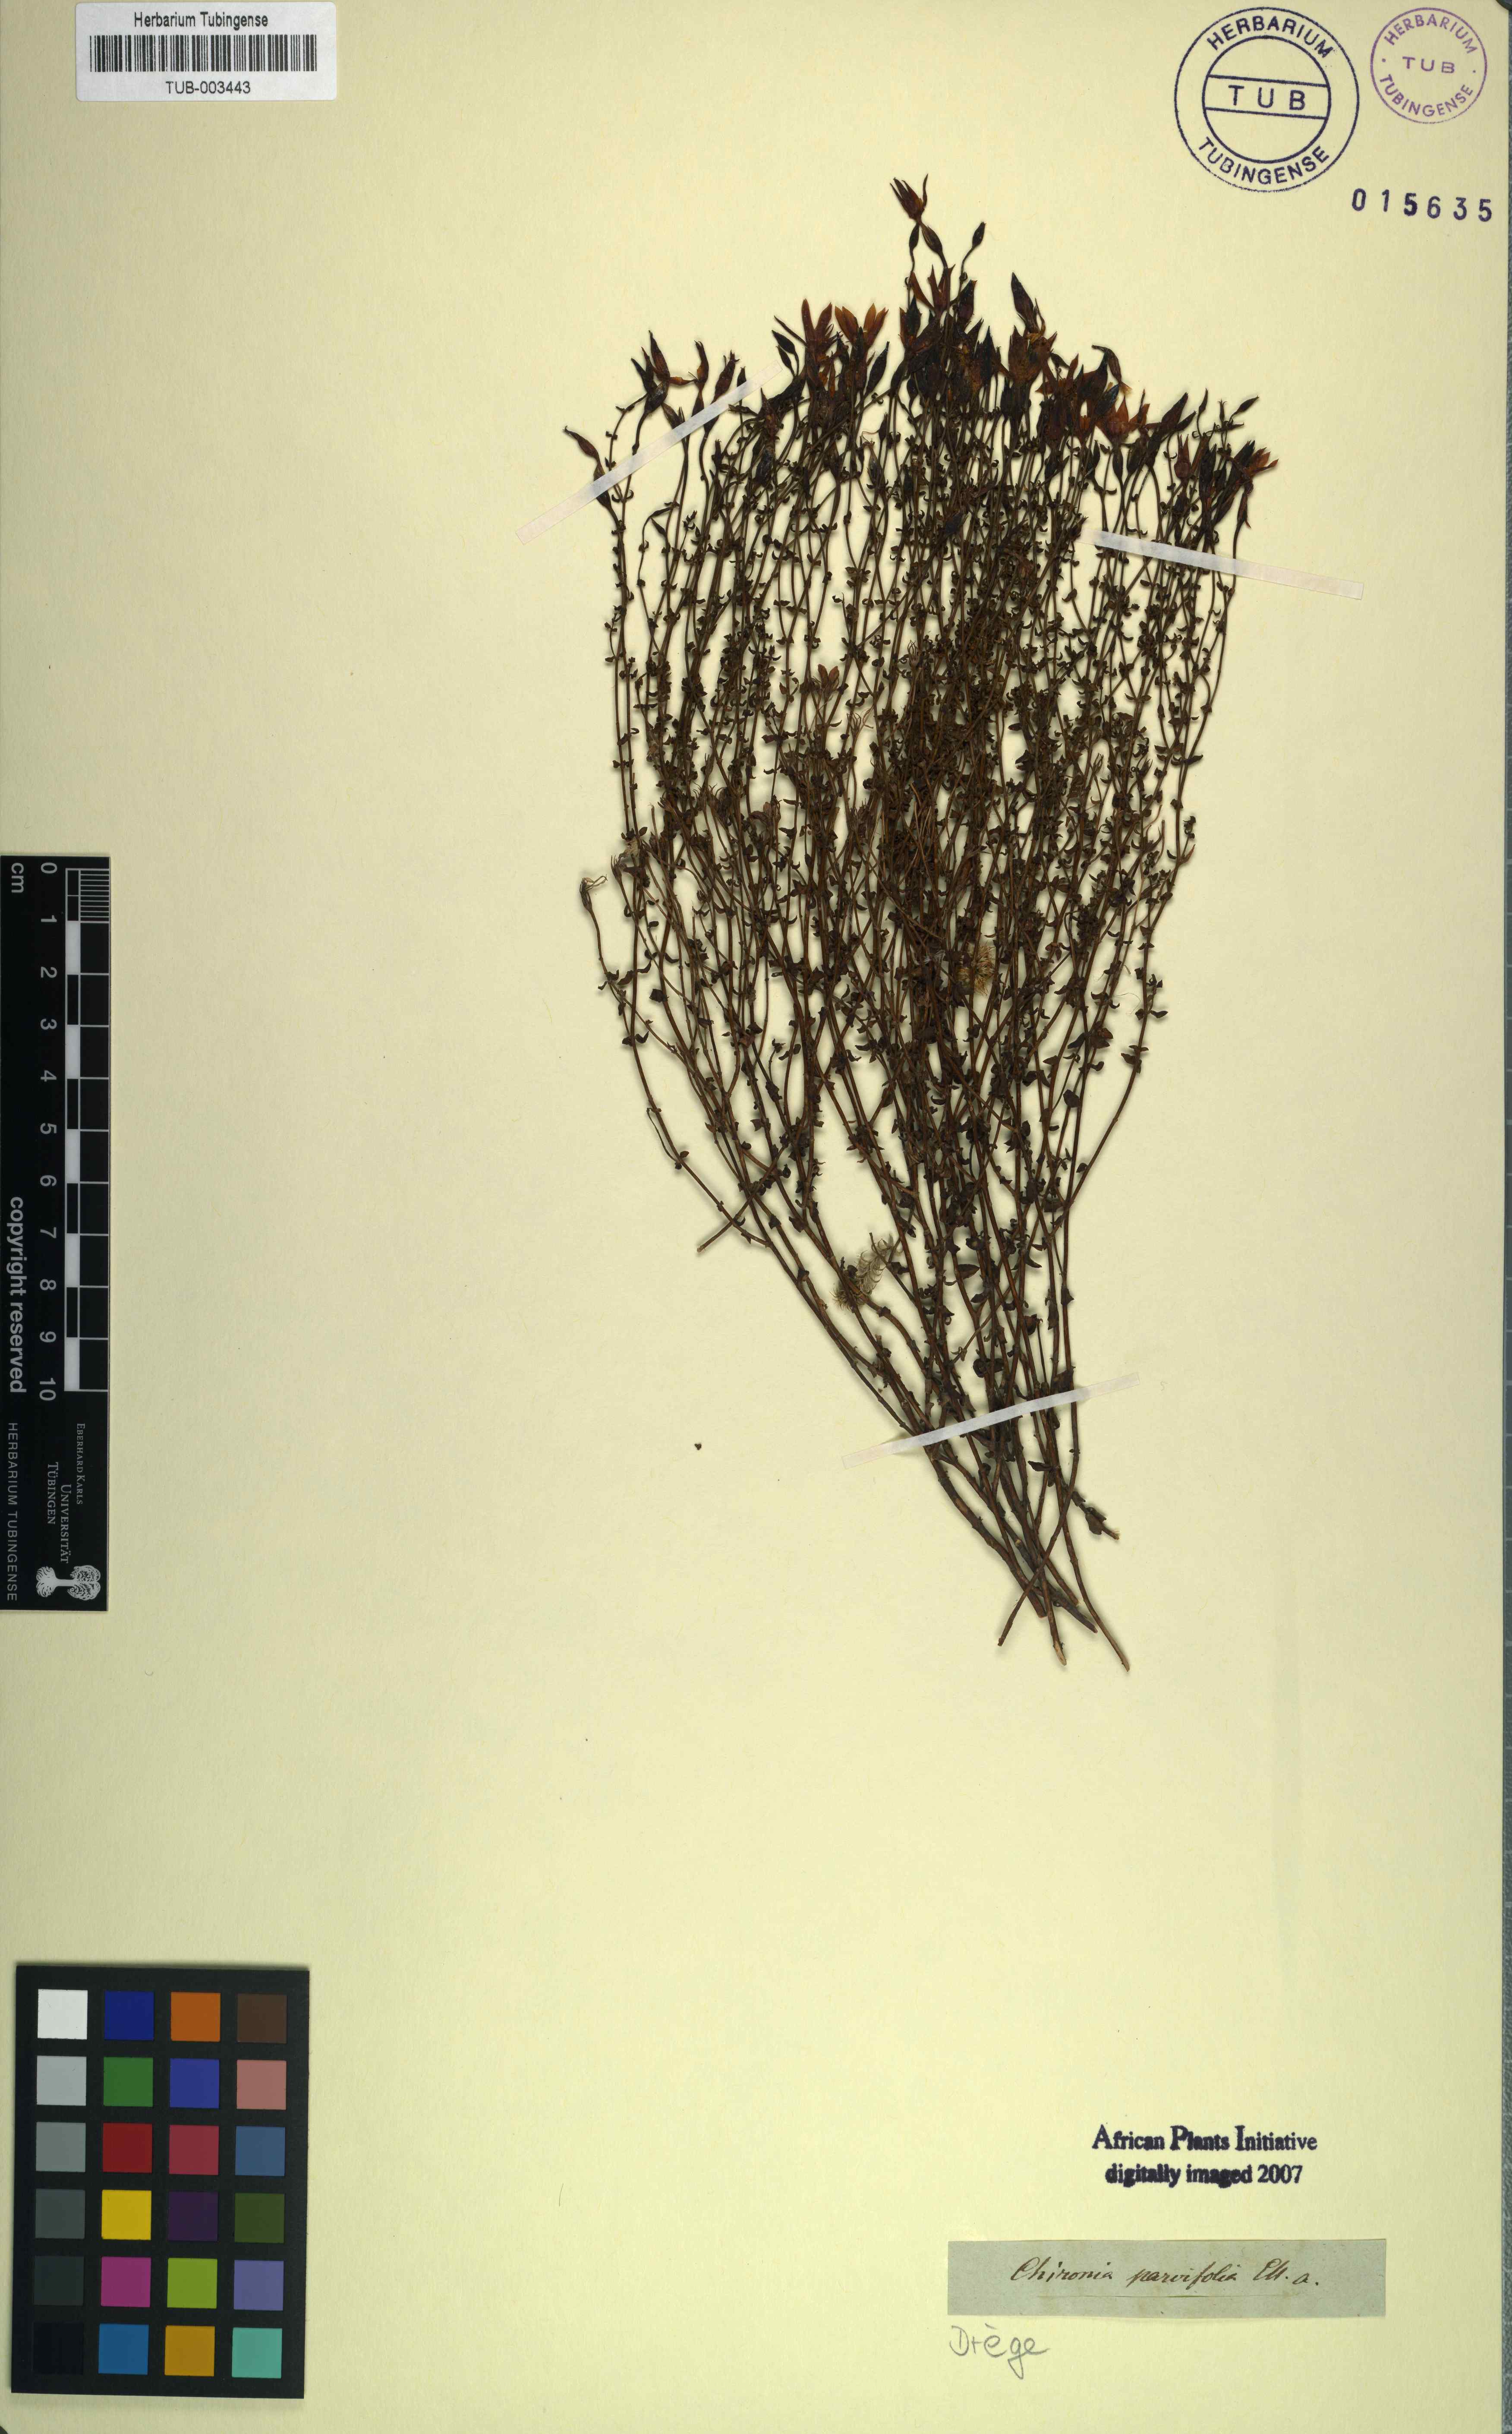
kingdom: Plantae
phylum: Tracheophyta
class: Magnoliopsida
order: Gentianales
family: Gentianaceae
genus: Chironia
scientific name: Chironia serpyllifolia
